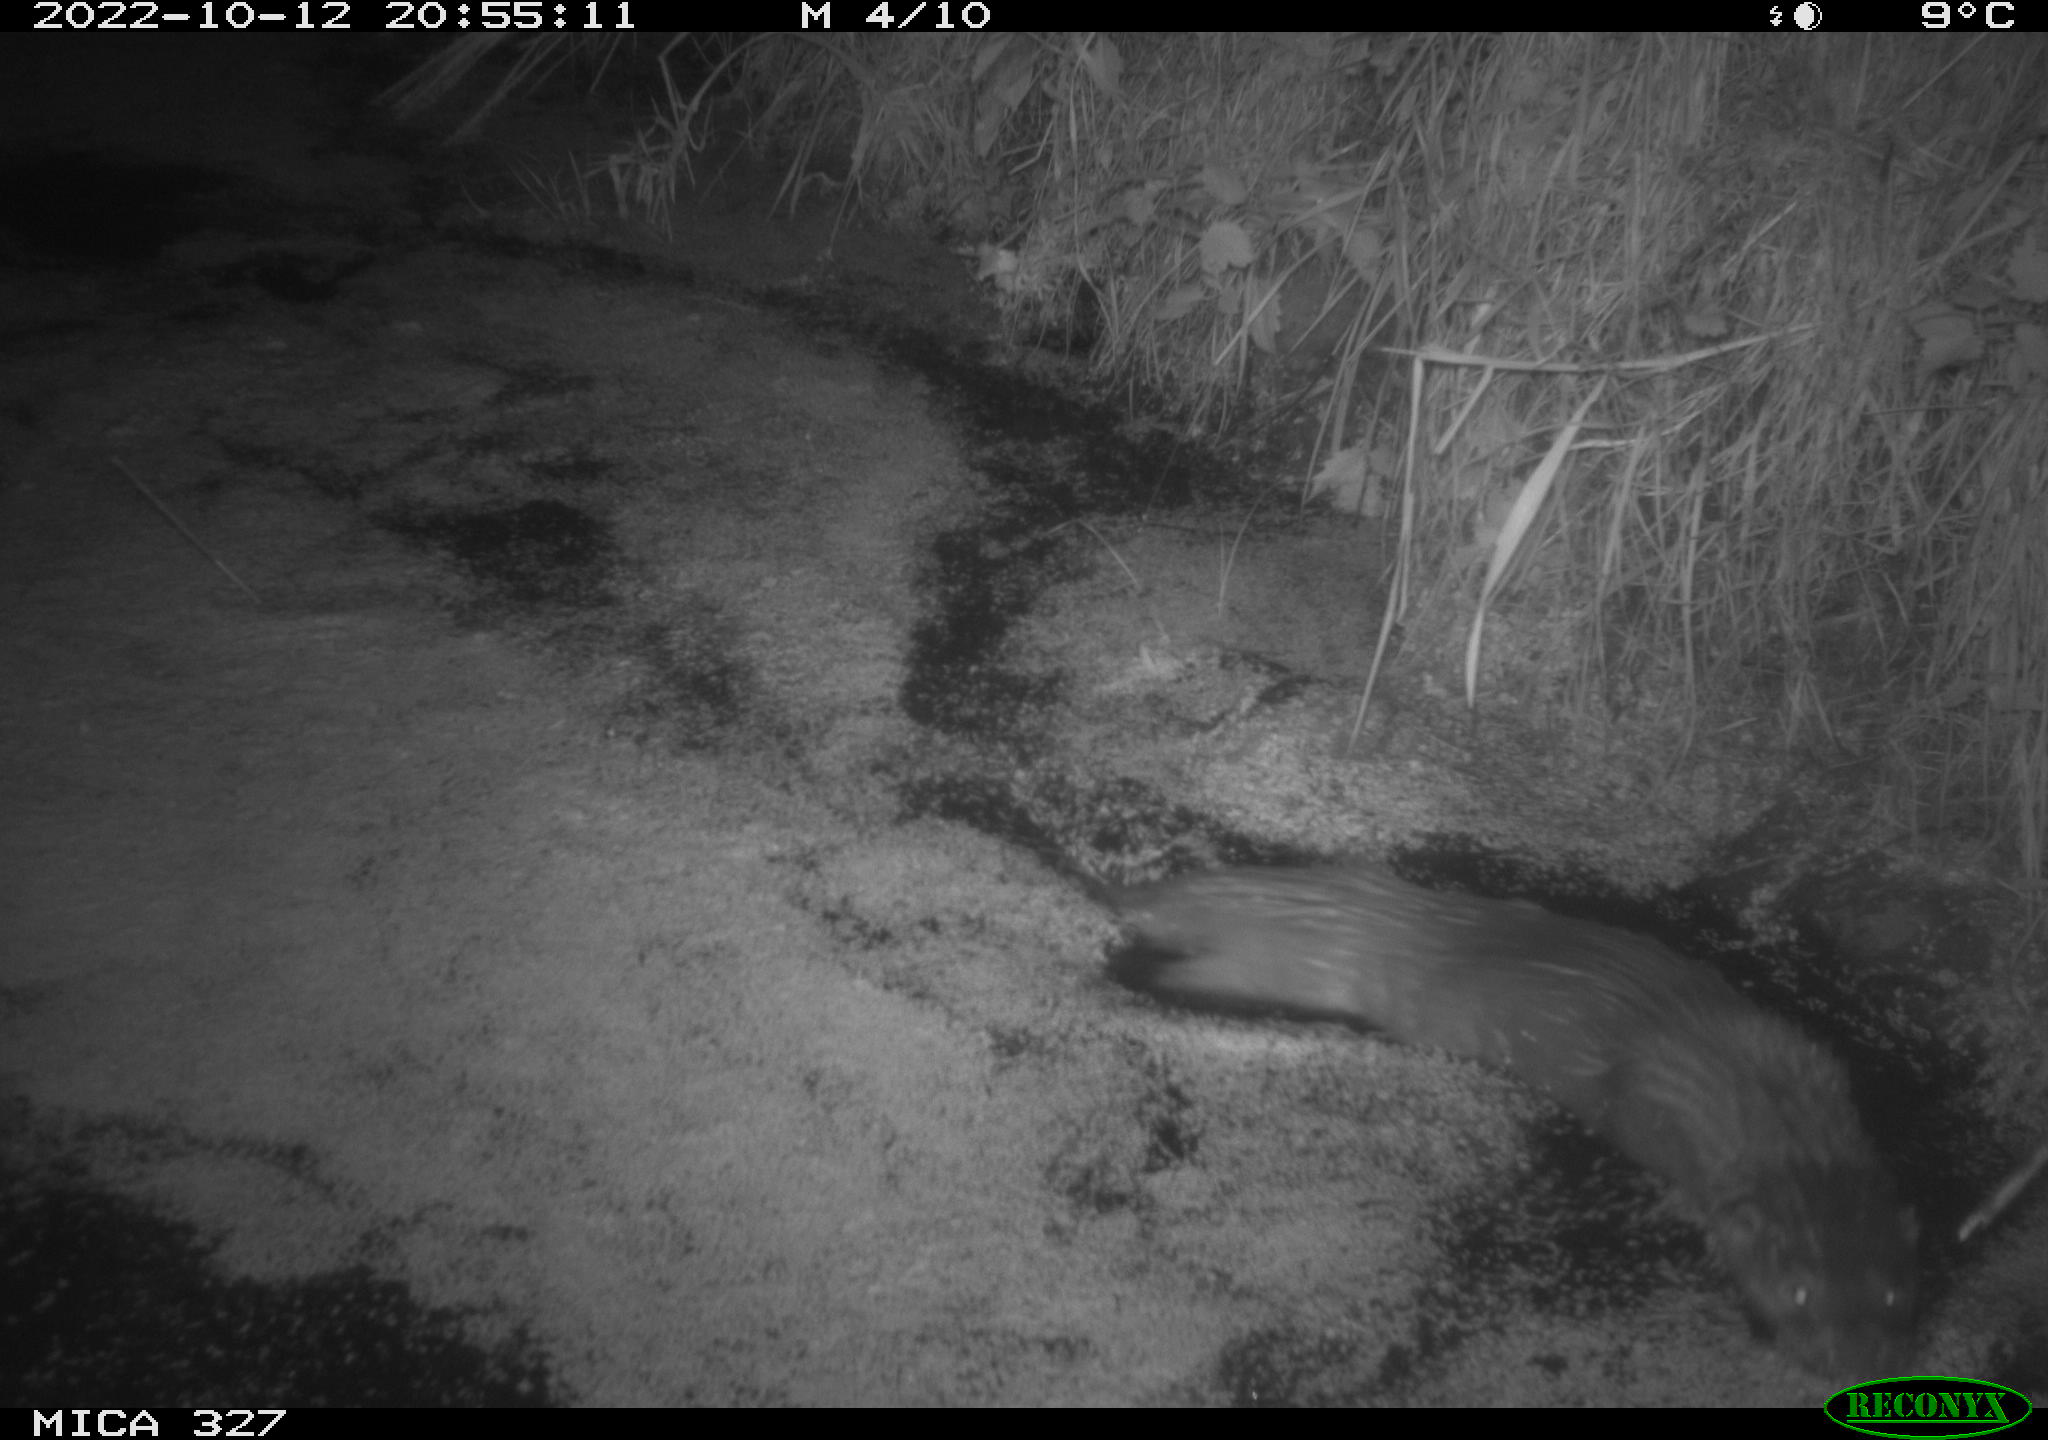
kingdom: Animalia
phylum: Chordata
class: Mammalia
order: Carnivora
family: Mustelidae
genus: Lutra
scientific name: Lutra lutra
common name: European otter
